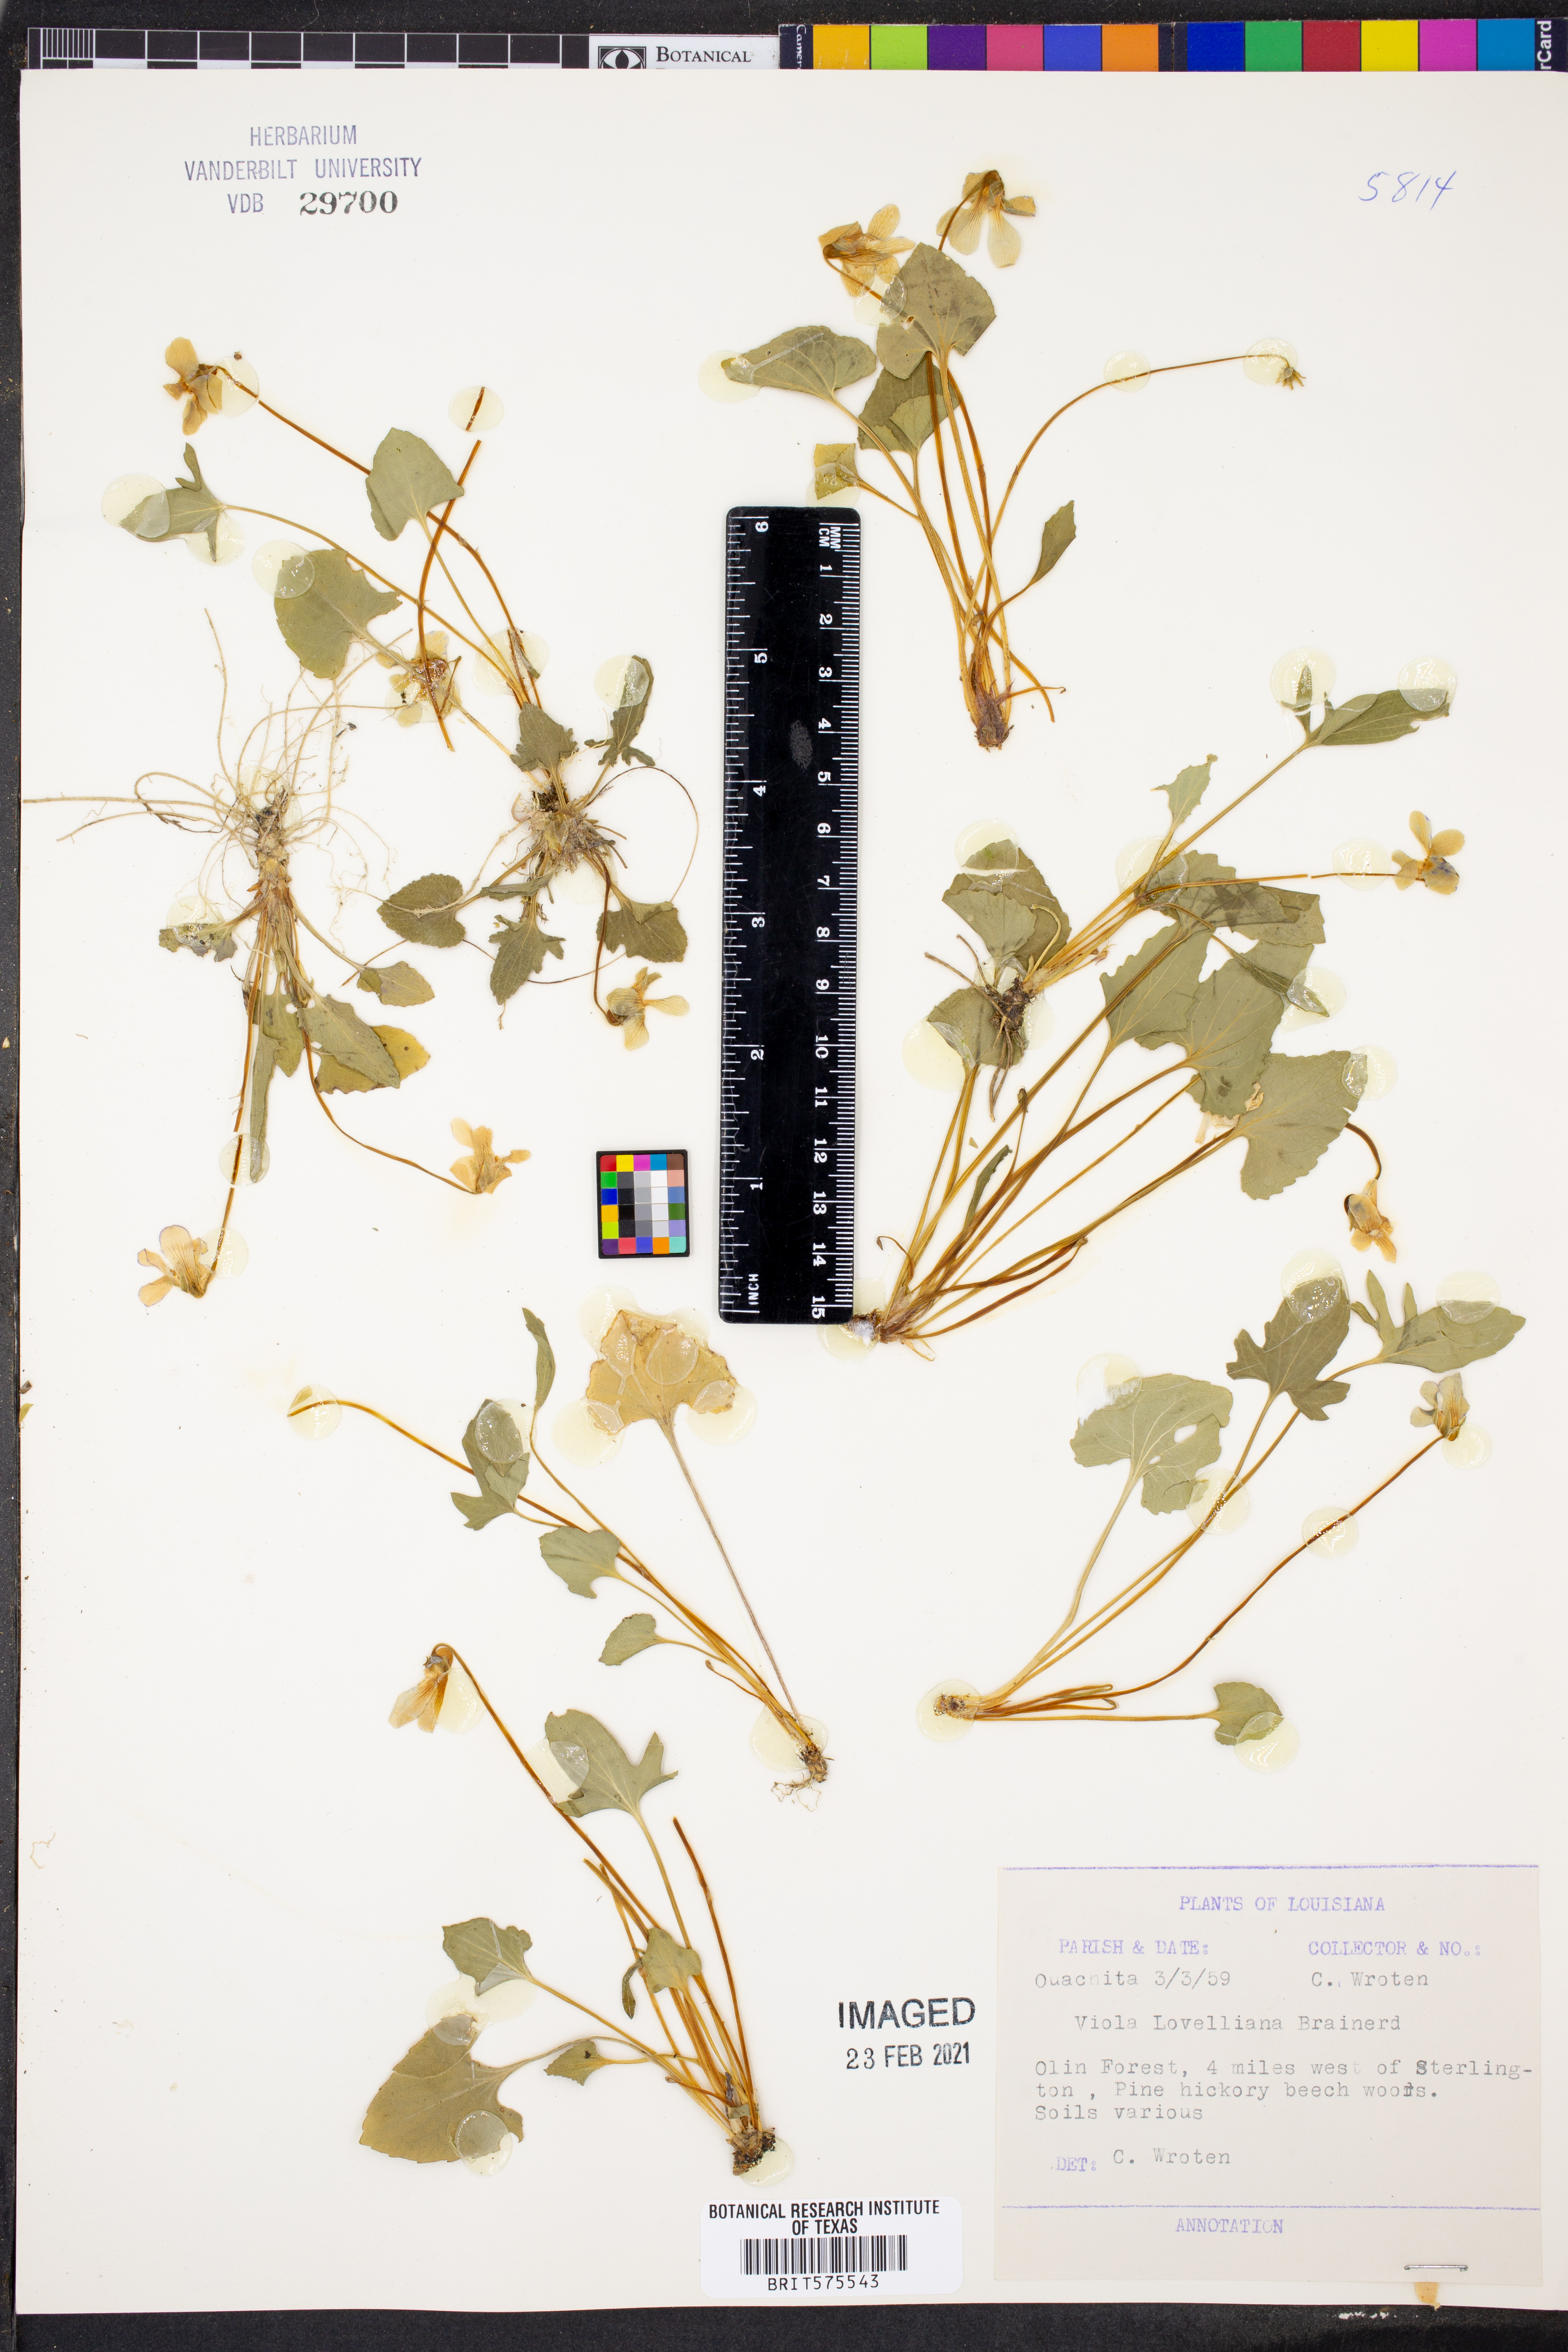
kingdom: Plantae
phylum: Tracheophyta
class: Magnoliopsida
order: Malpighiales
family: Violaceae
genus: Viola
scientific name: Viola lovelliana
